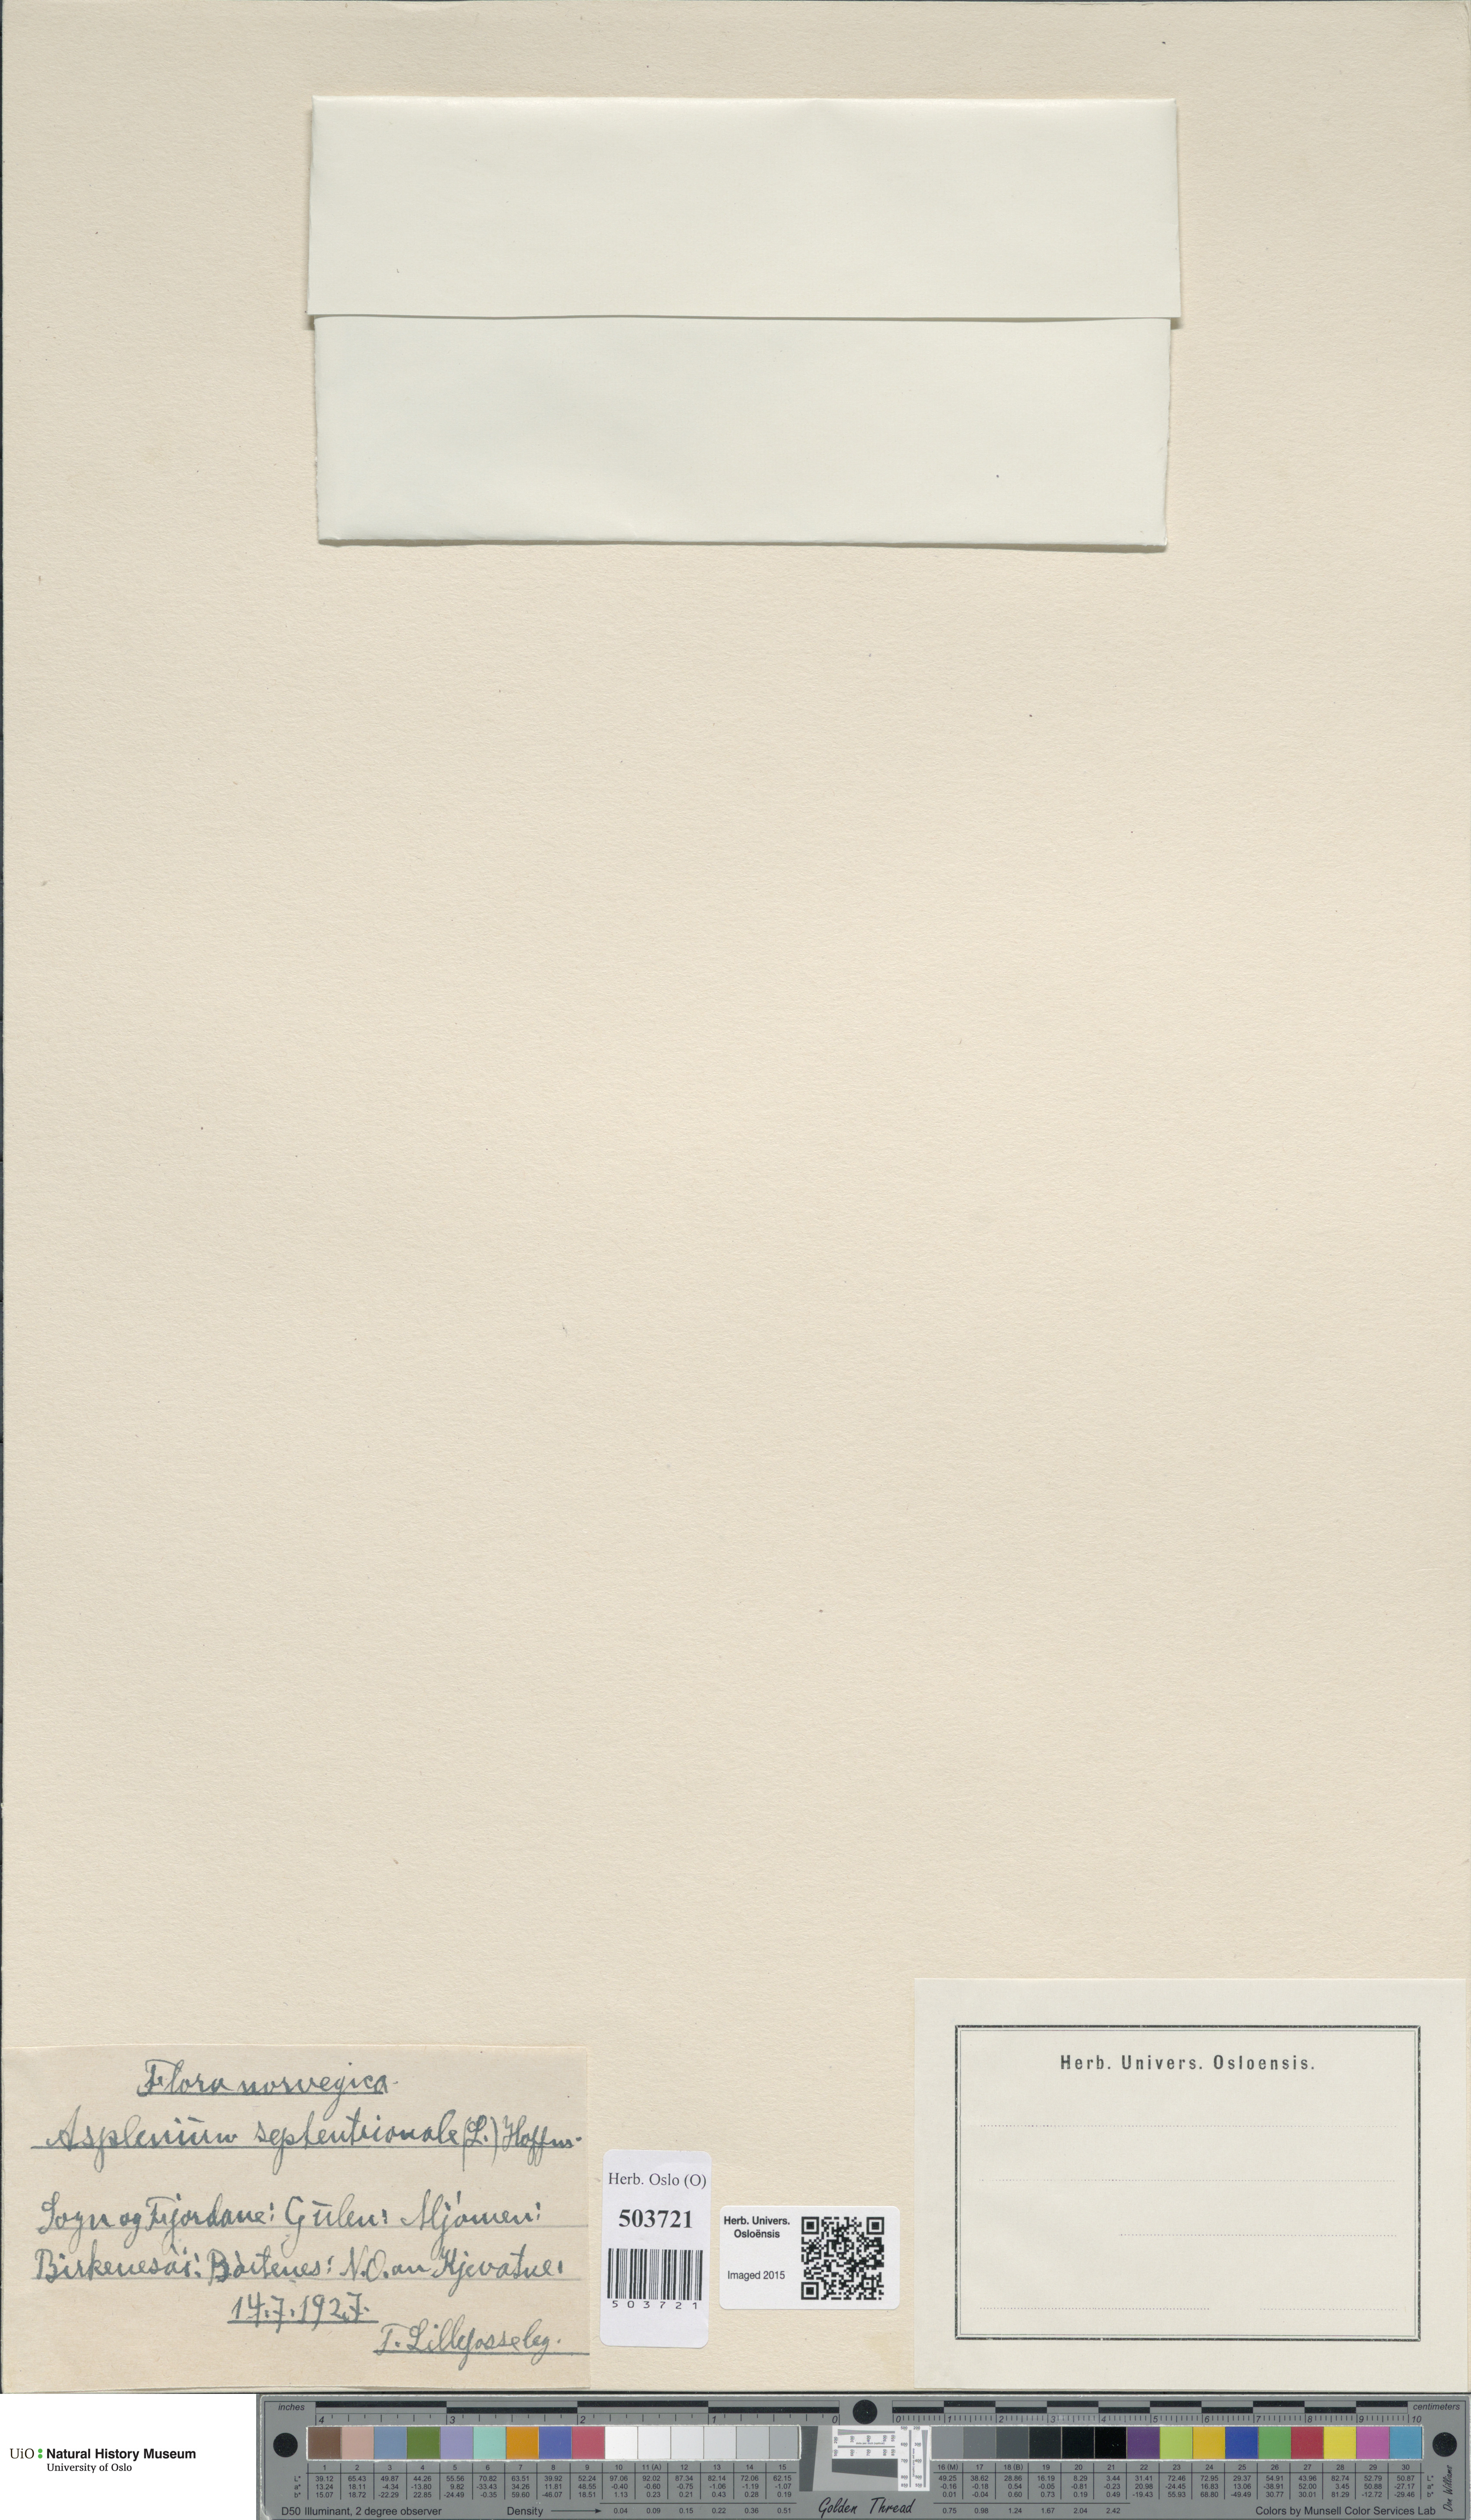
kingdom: Plantae
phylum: Tracheophyta
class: Polypodiopsida
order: Polypodiales
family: Aspleniaceae
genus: Asplenium
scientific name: Asplenium septentrionale
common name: Forked spleenwort
